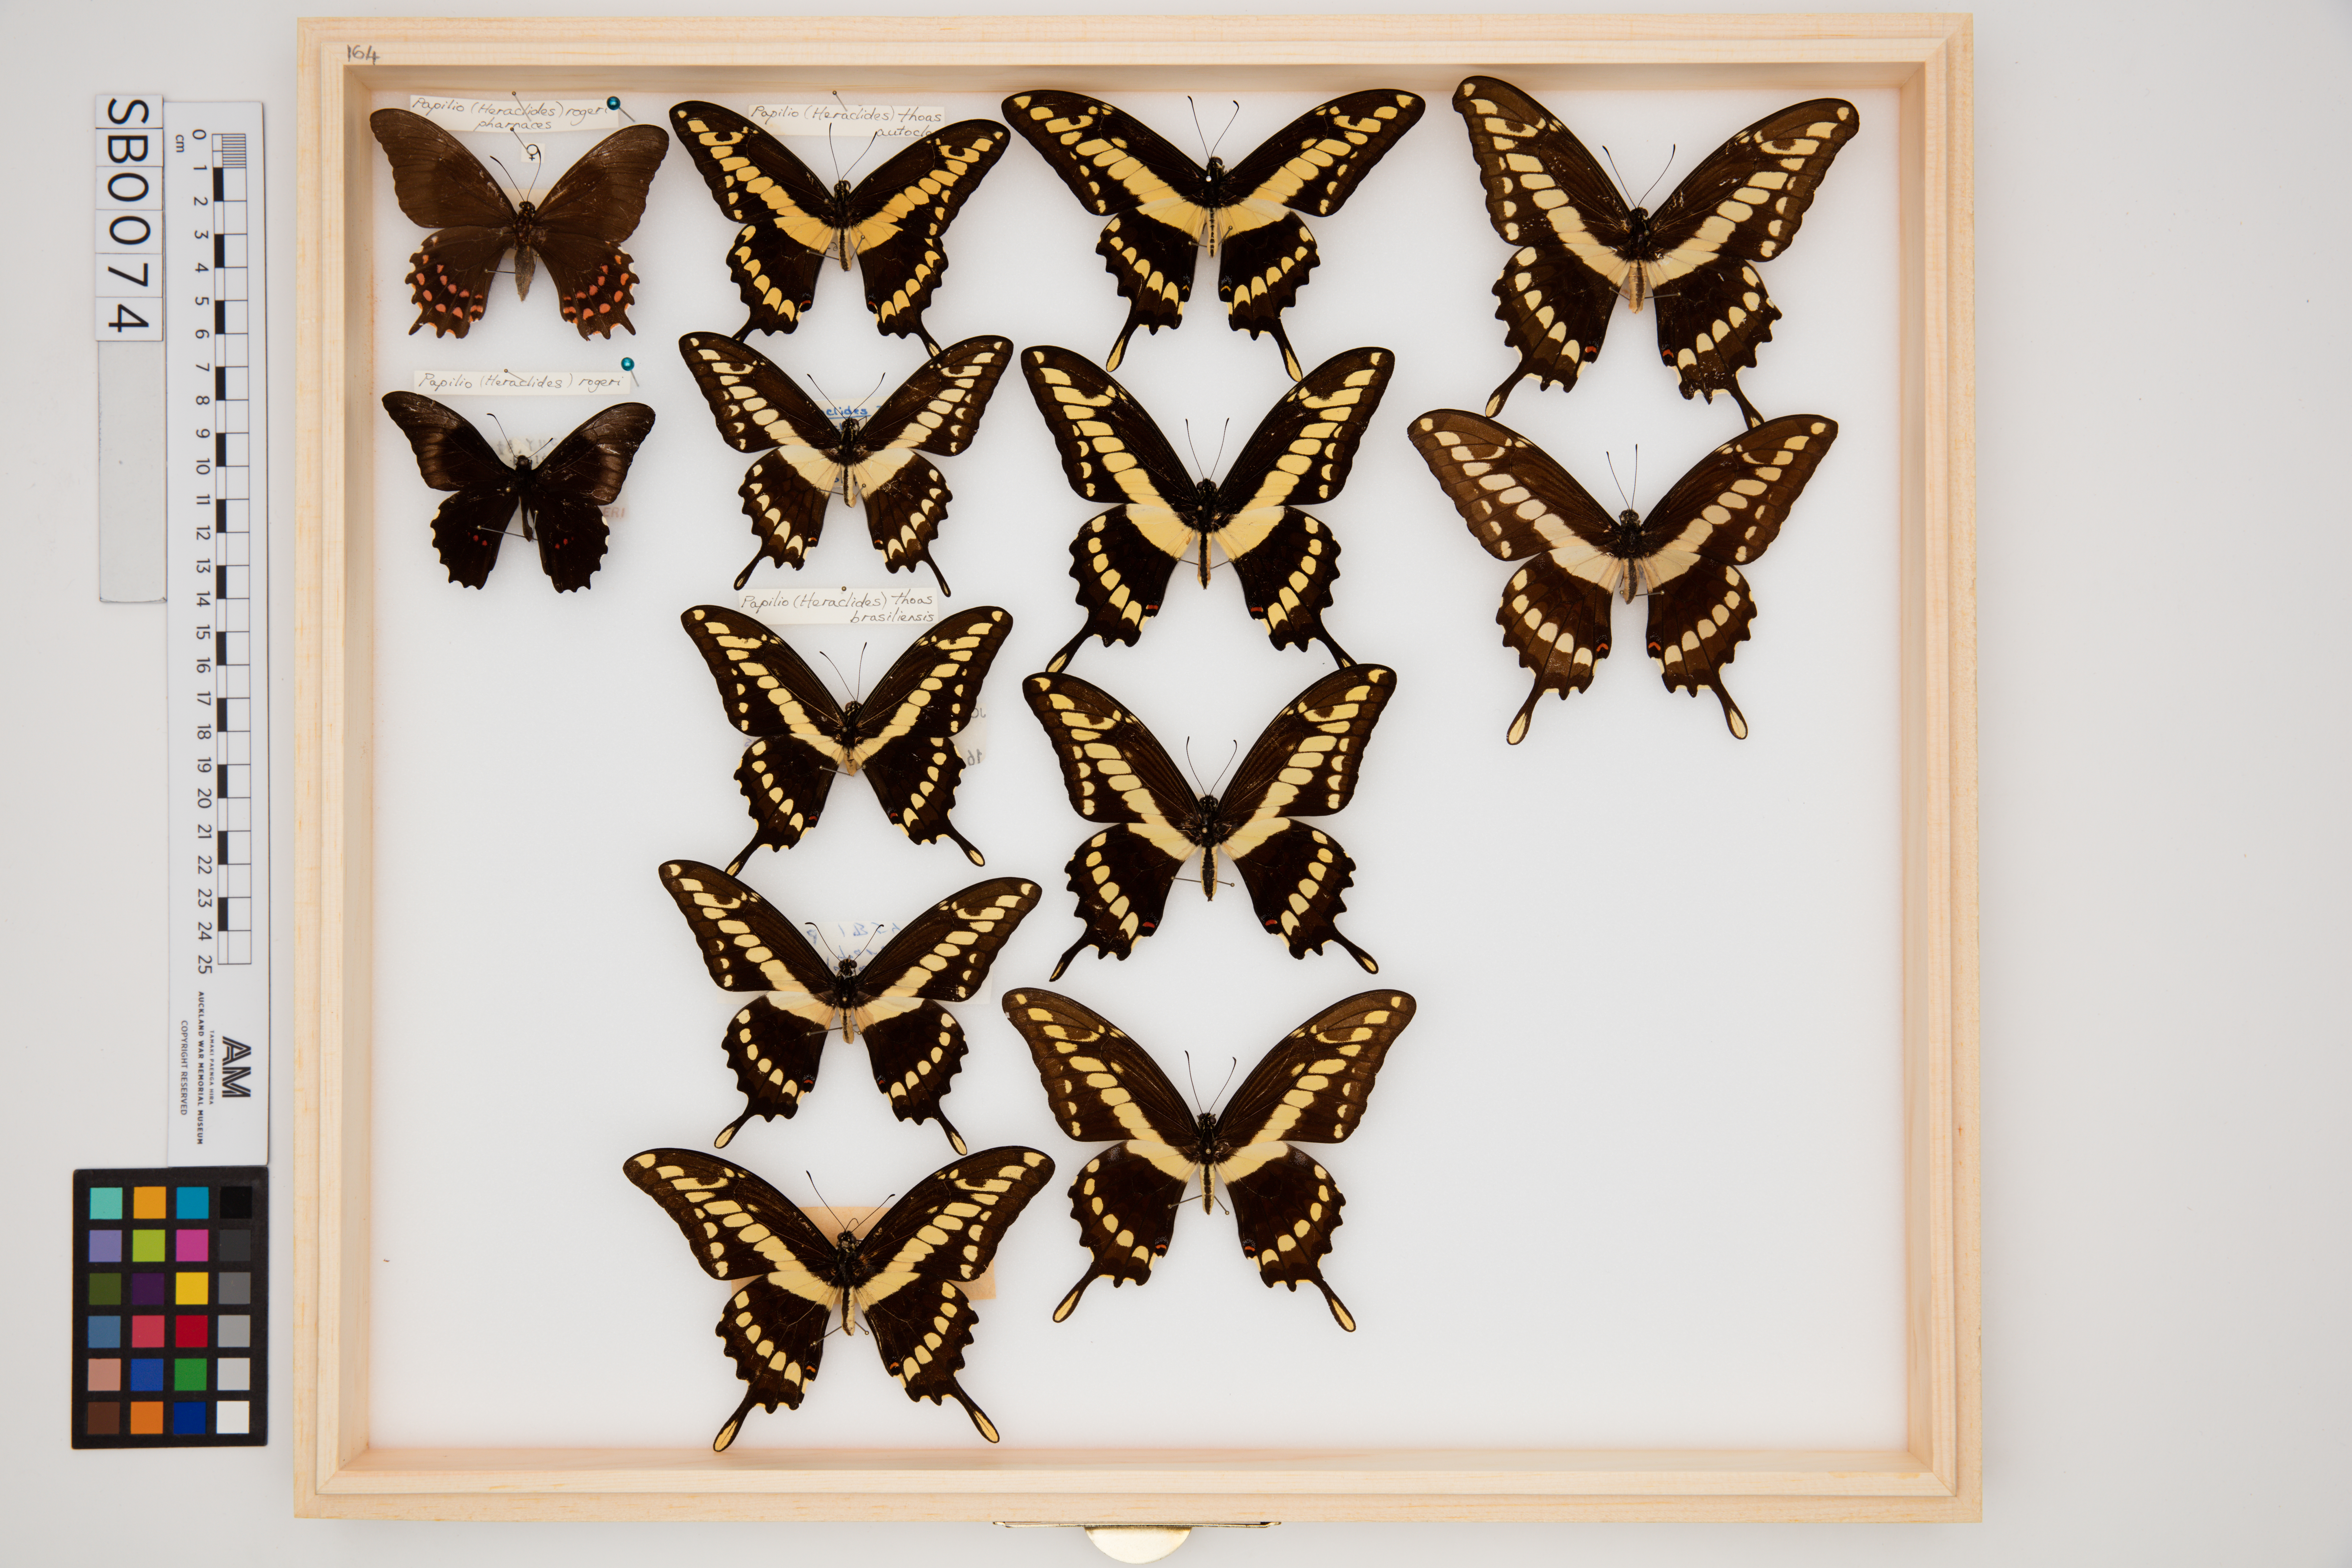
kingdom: Animalia
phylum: Arthropoda
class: Insecta
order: Lepidoptera
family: Papilionidae
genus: Papilio
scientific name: Papilio thoas
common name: King swallowtail
